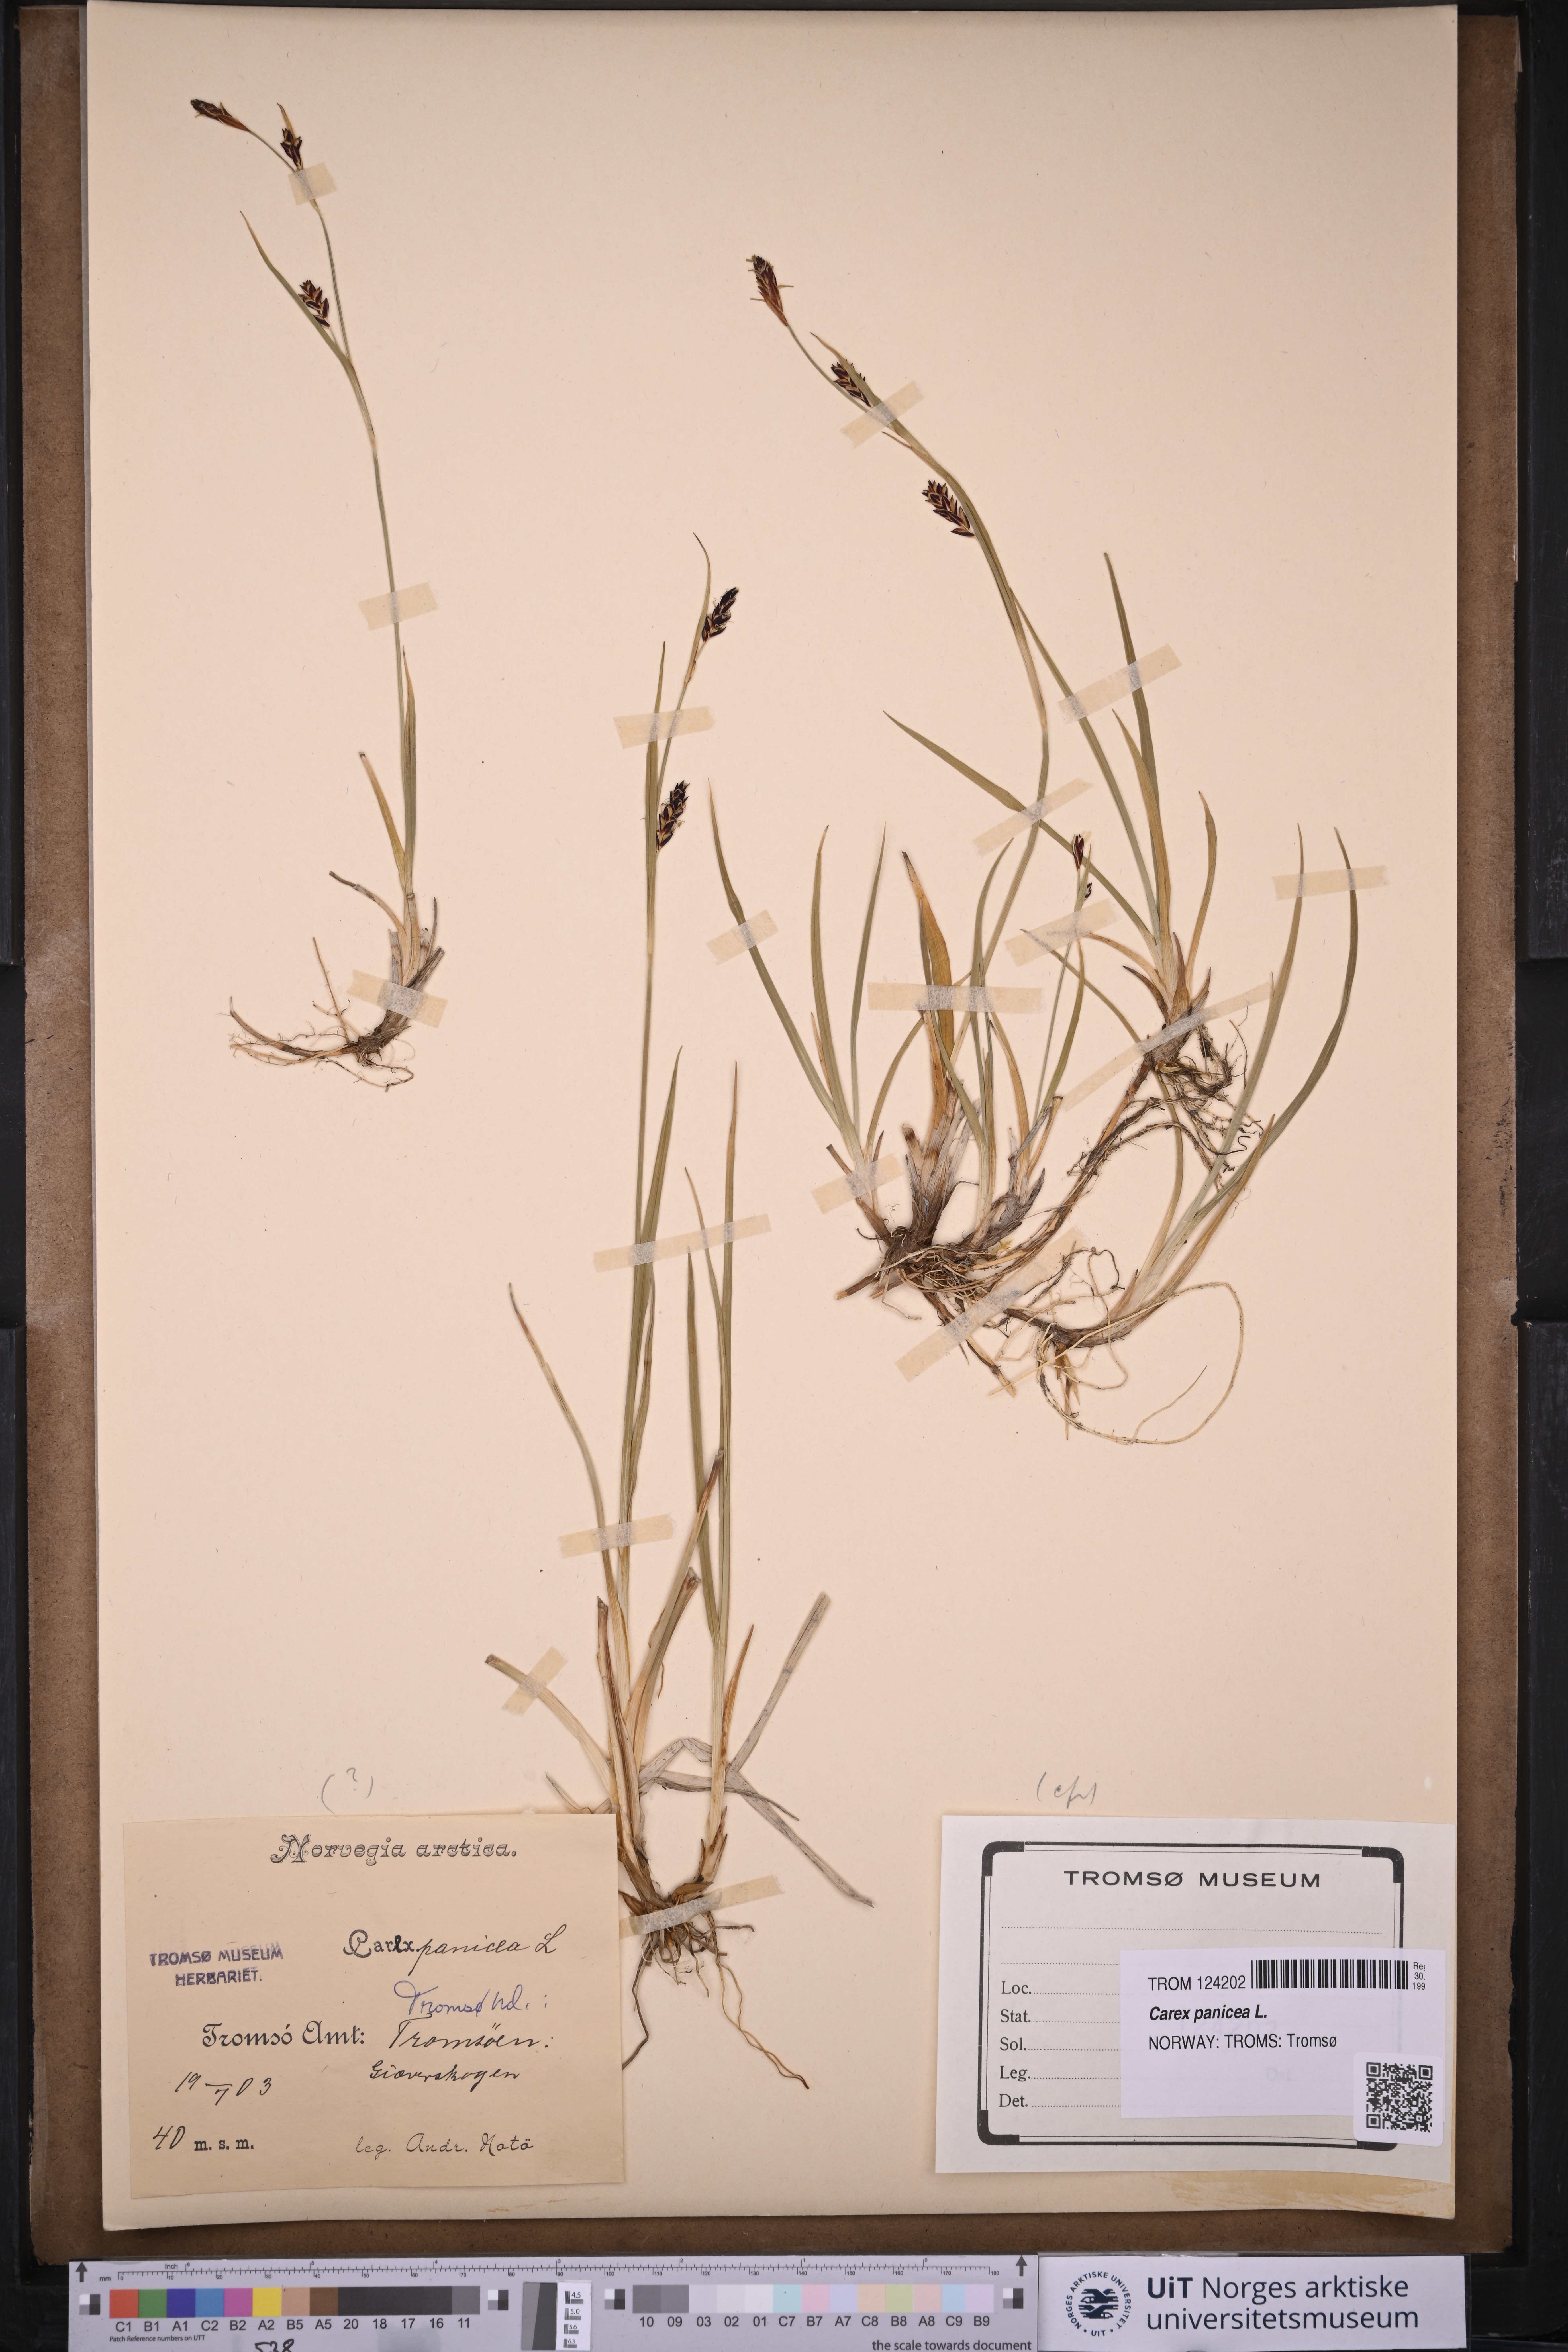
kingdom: Plantae
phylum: Tracheophyta
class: Liliopsida
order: Poales
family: Cyperaceae
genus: Carex
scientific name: Carex panicea
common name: Carnation sedge
